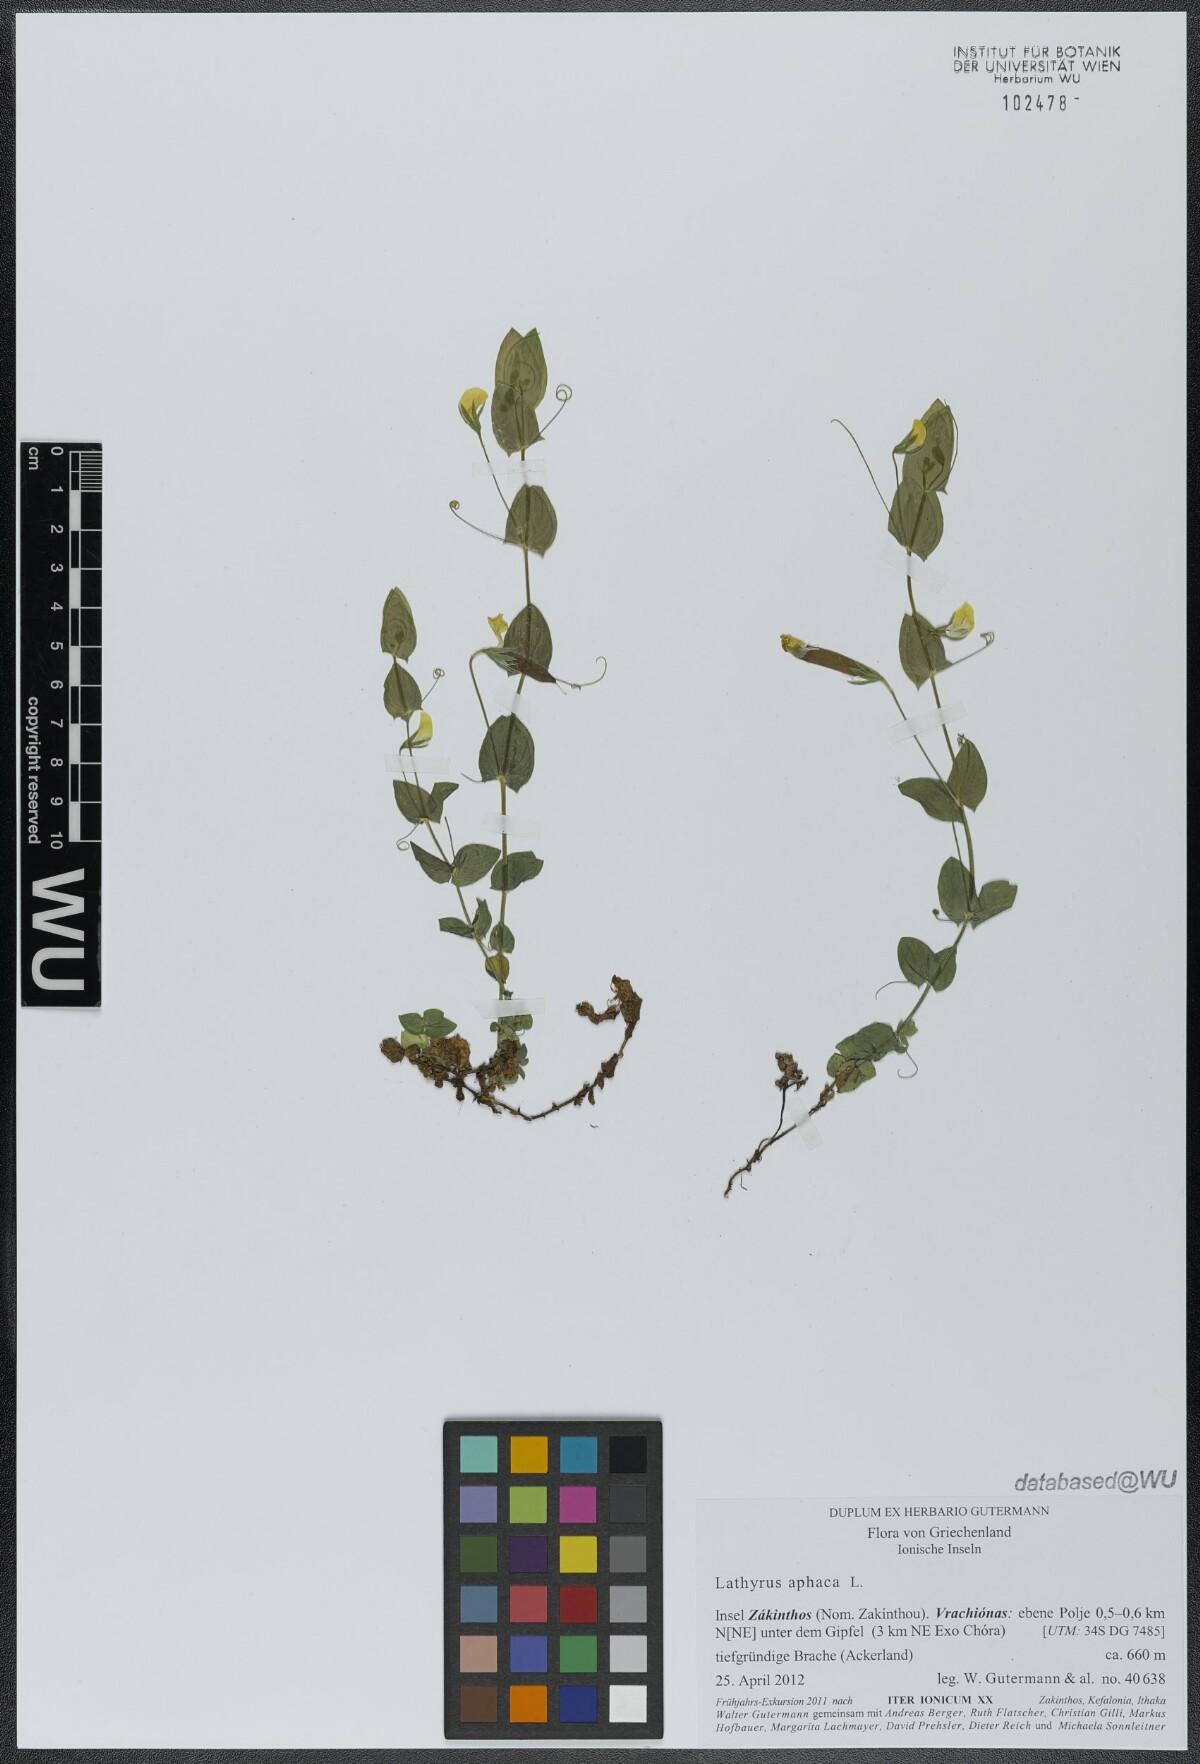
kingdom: Plantae
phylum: Tracheophyta
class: Magnoliopsida
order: Fabales
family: Fabaceae
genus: Lathyrus
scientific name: Lathyrus aphaca
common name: Yellow vetchling
